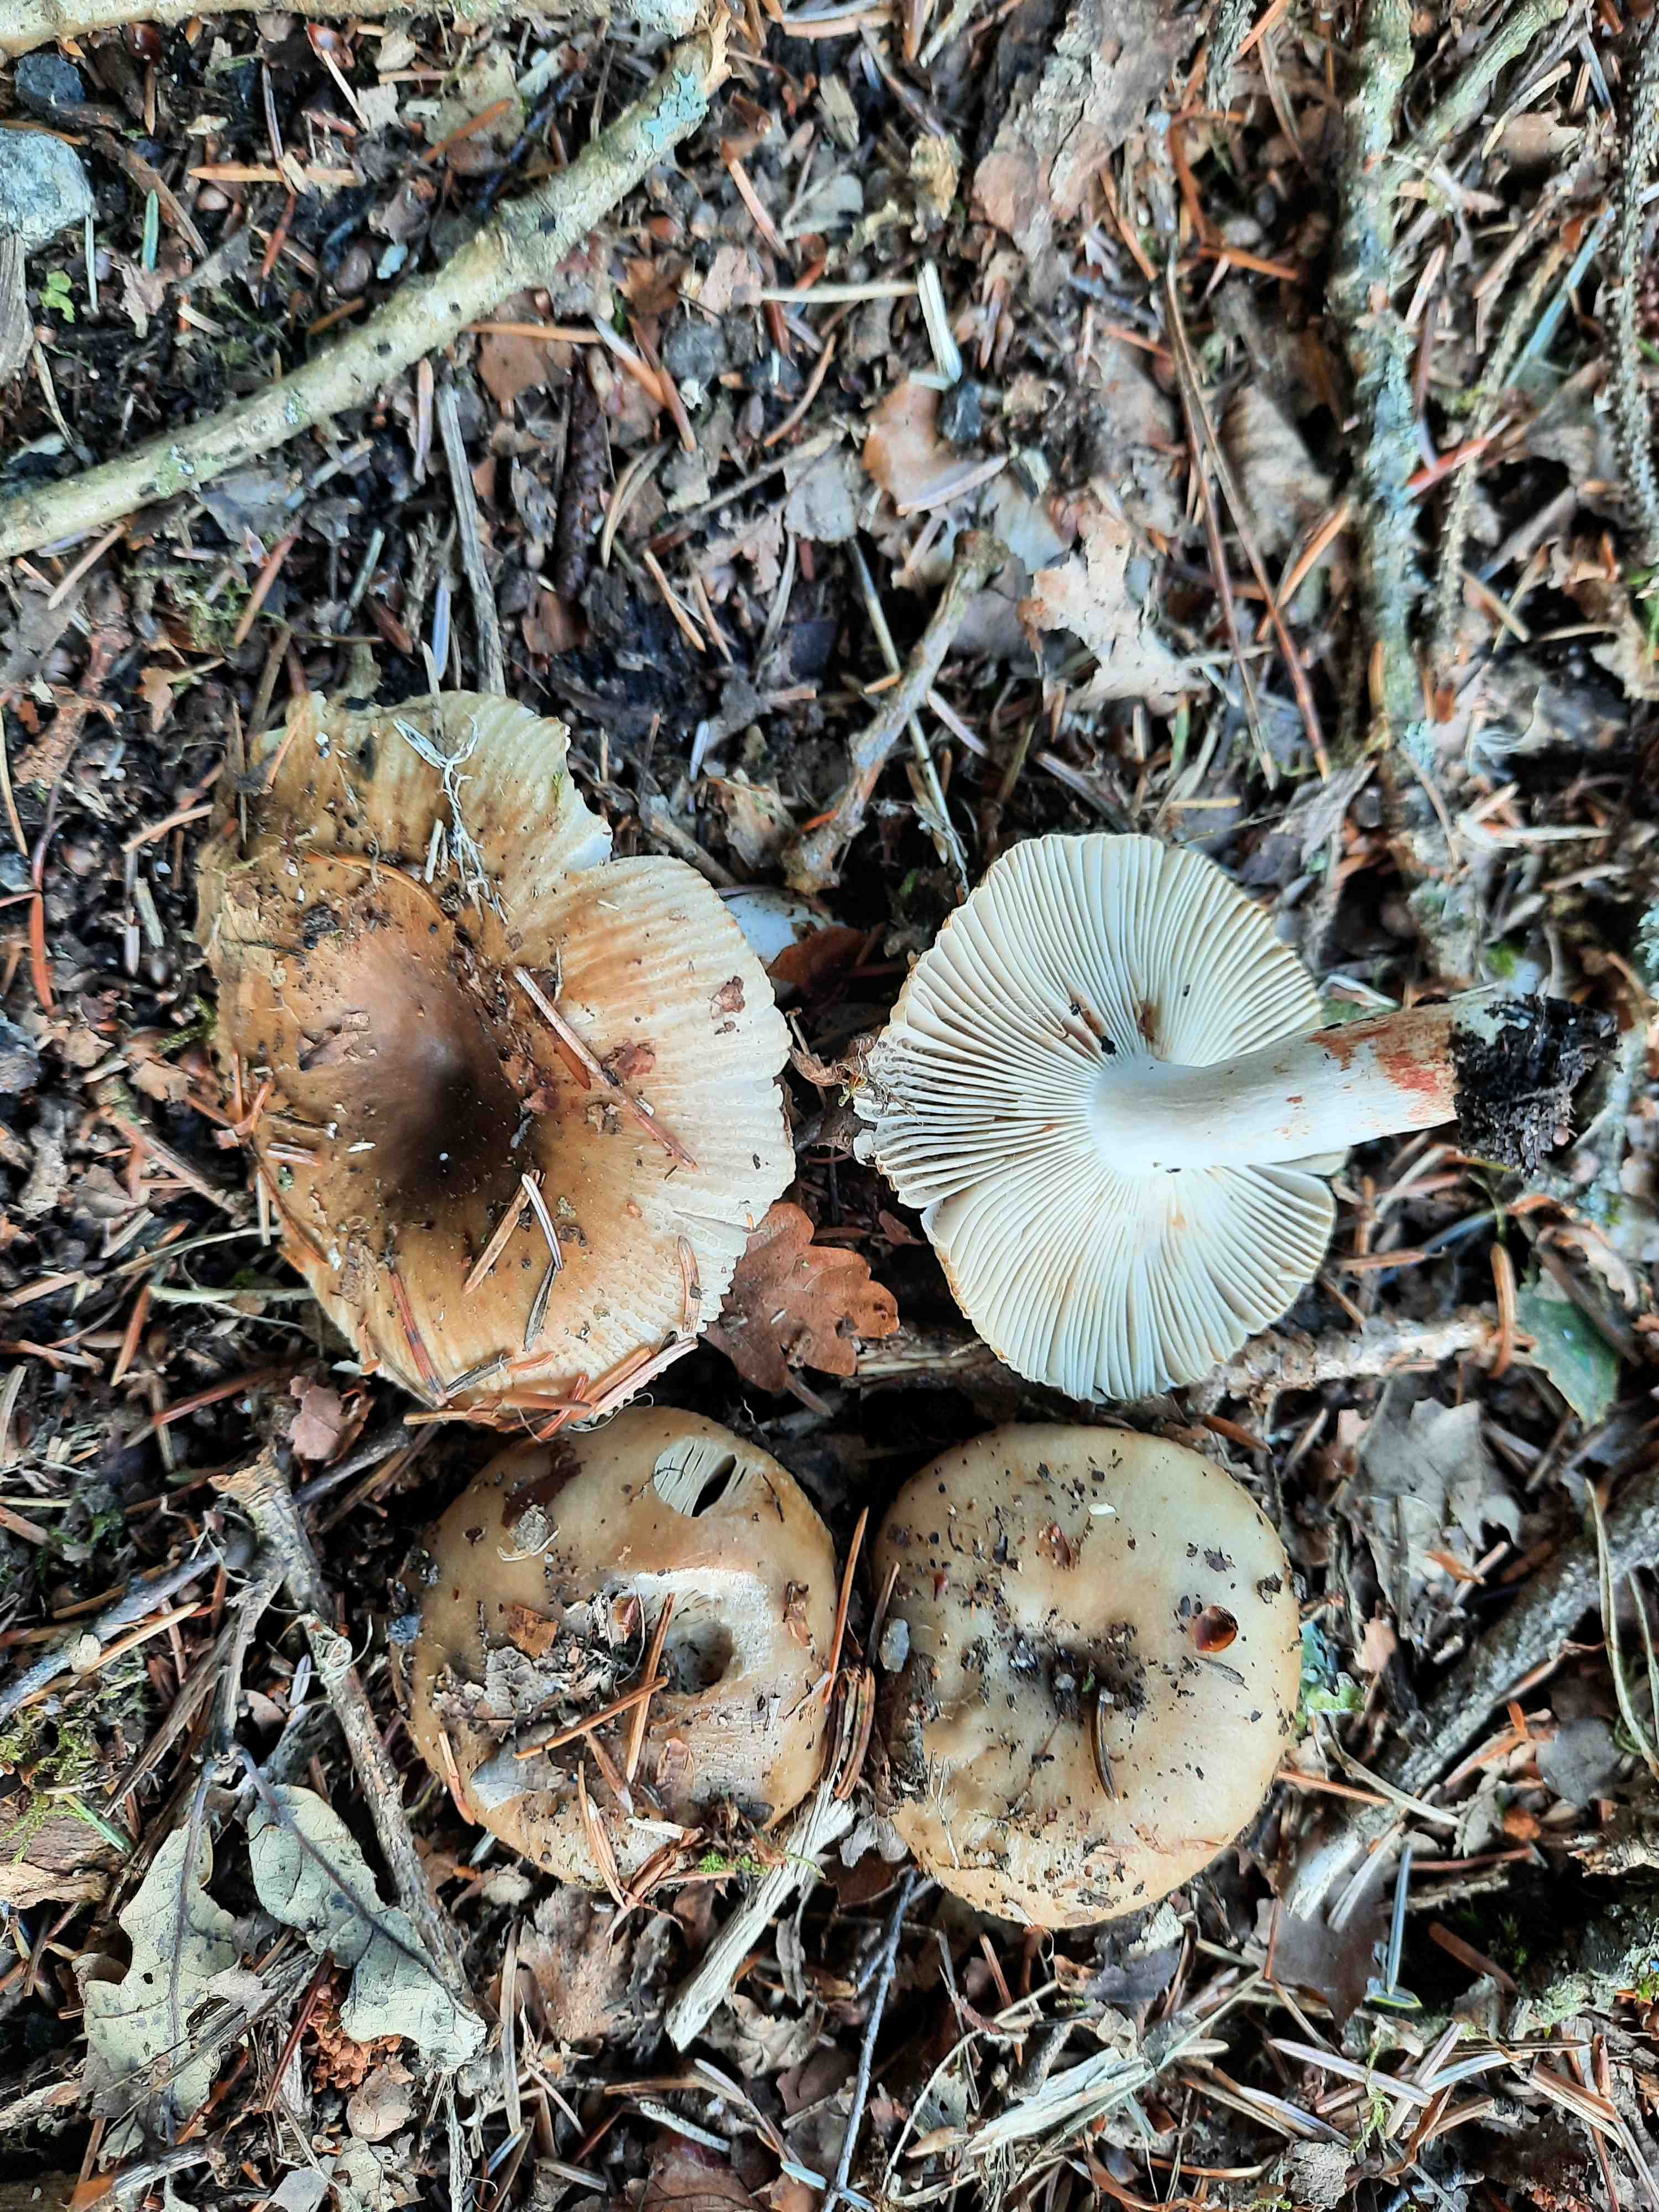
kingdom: Fungi
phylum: Basidiomycota
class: Agaricomycetes
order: Russulales
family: Russulaceae
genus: Russula
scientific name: Russula recondita
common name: mild kam-skørhat
